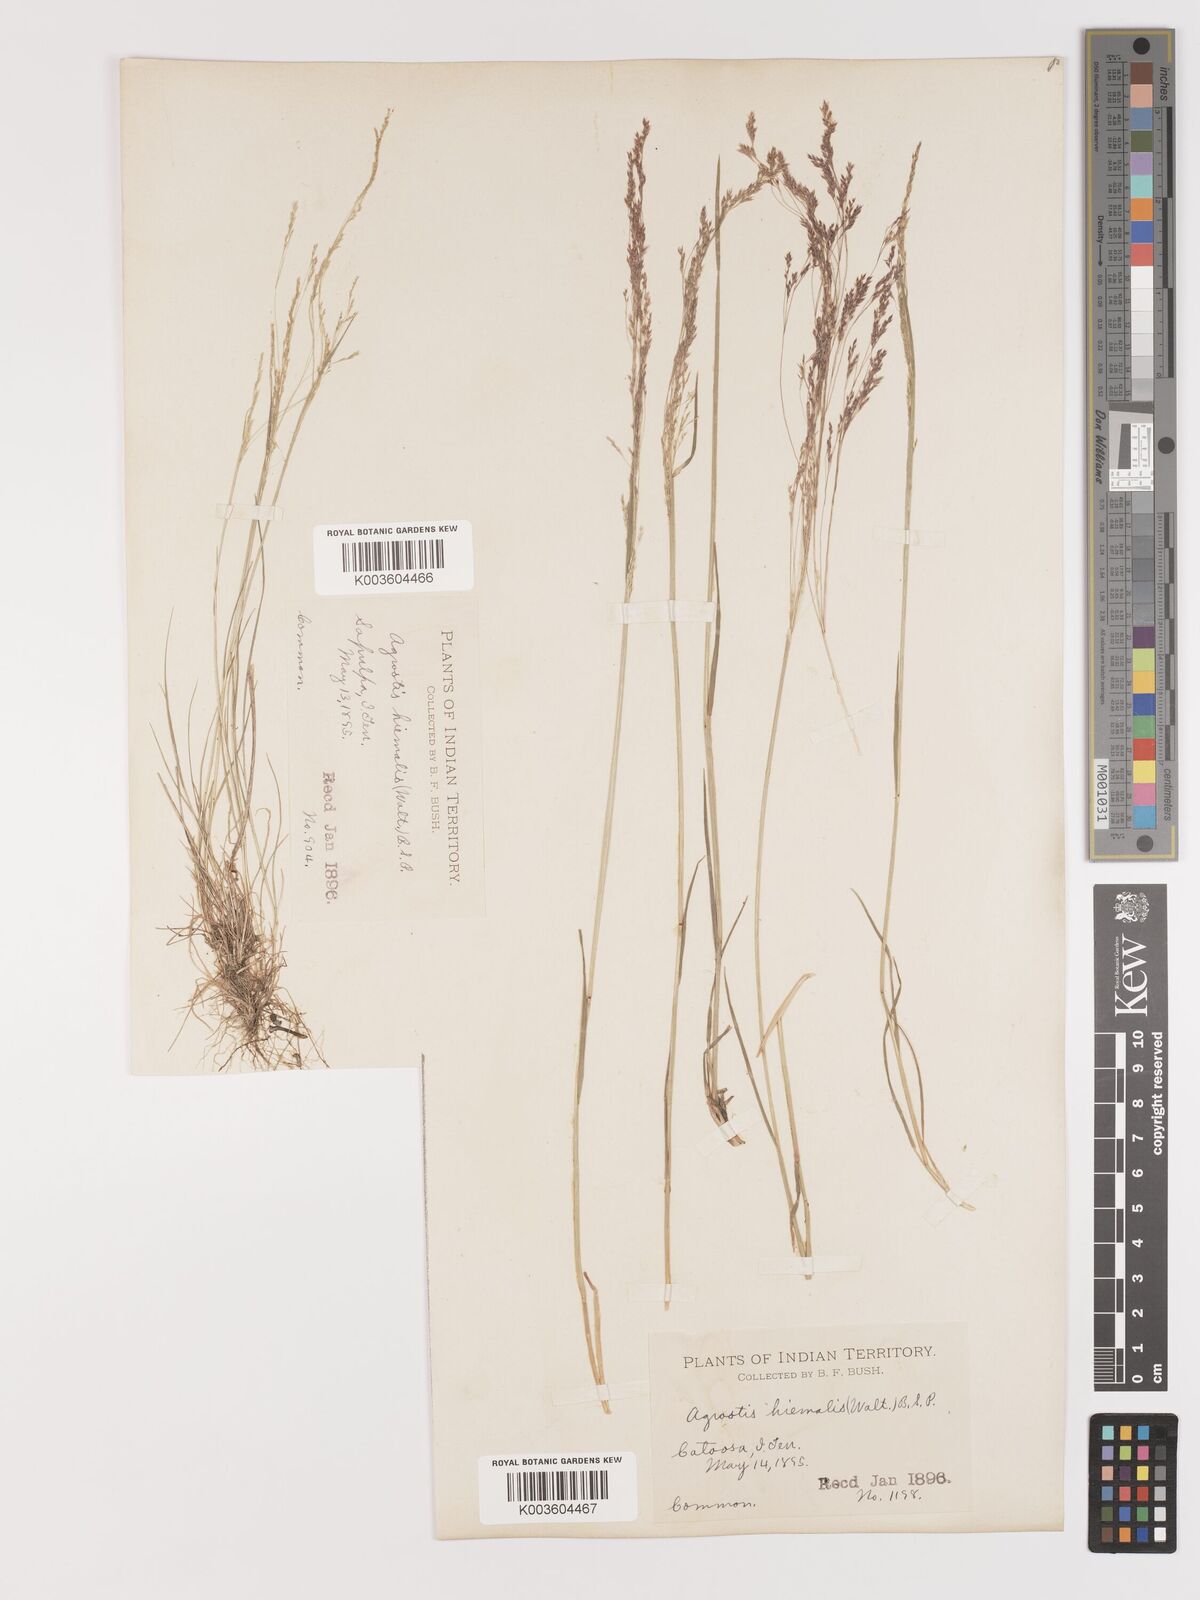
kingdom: Plantae
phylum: Tracheophyta
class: Liliopsida
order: Poales
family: Poaceae
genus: Agrostis
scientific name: Agrostis hyemalis
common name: Small bent
